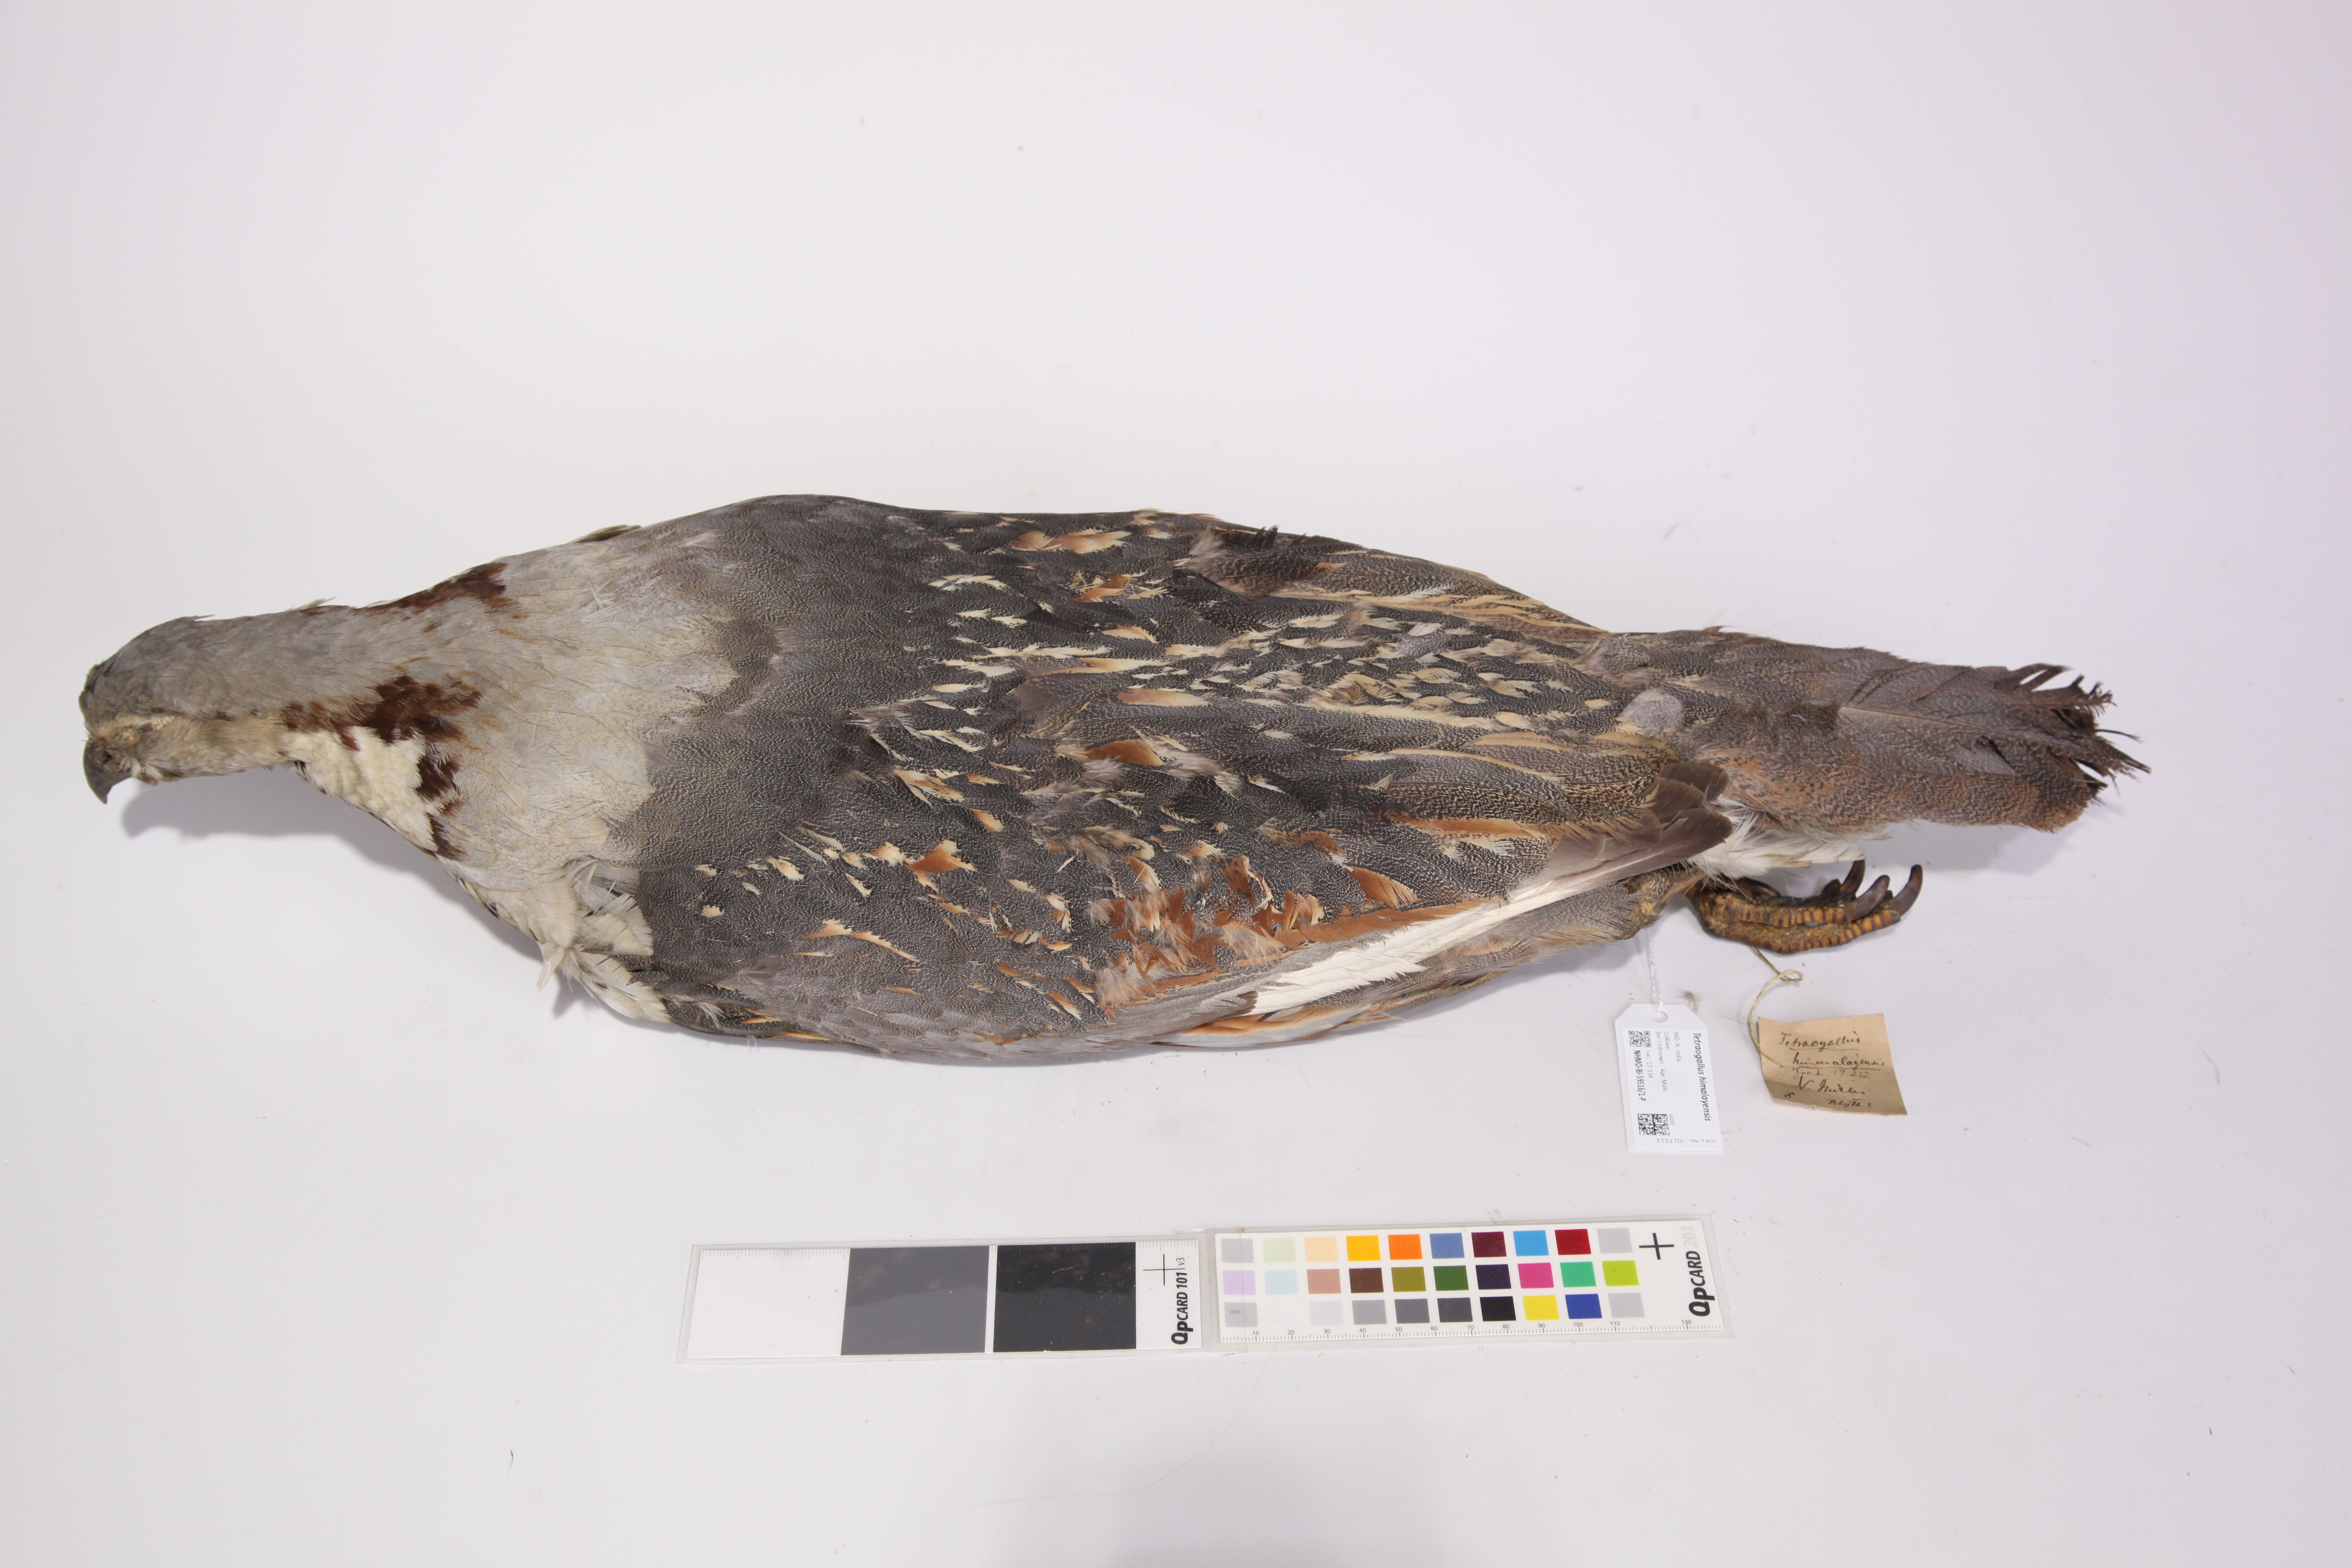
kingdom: Animalia
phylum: Chordata
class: Aves
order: Galliformes
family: Phasianidae
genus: Tetraogallus
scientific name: Tetraogallus himalayensis
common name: Himalayan snowcock
